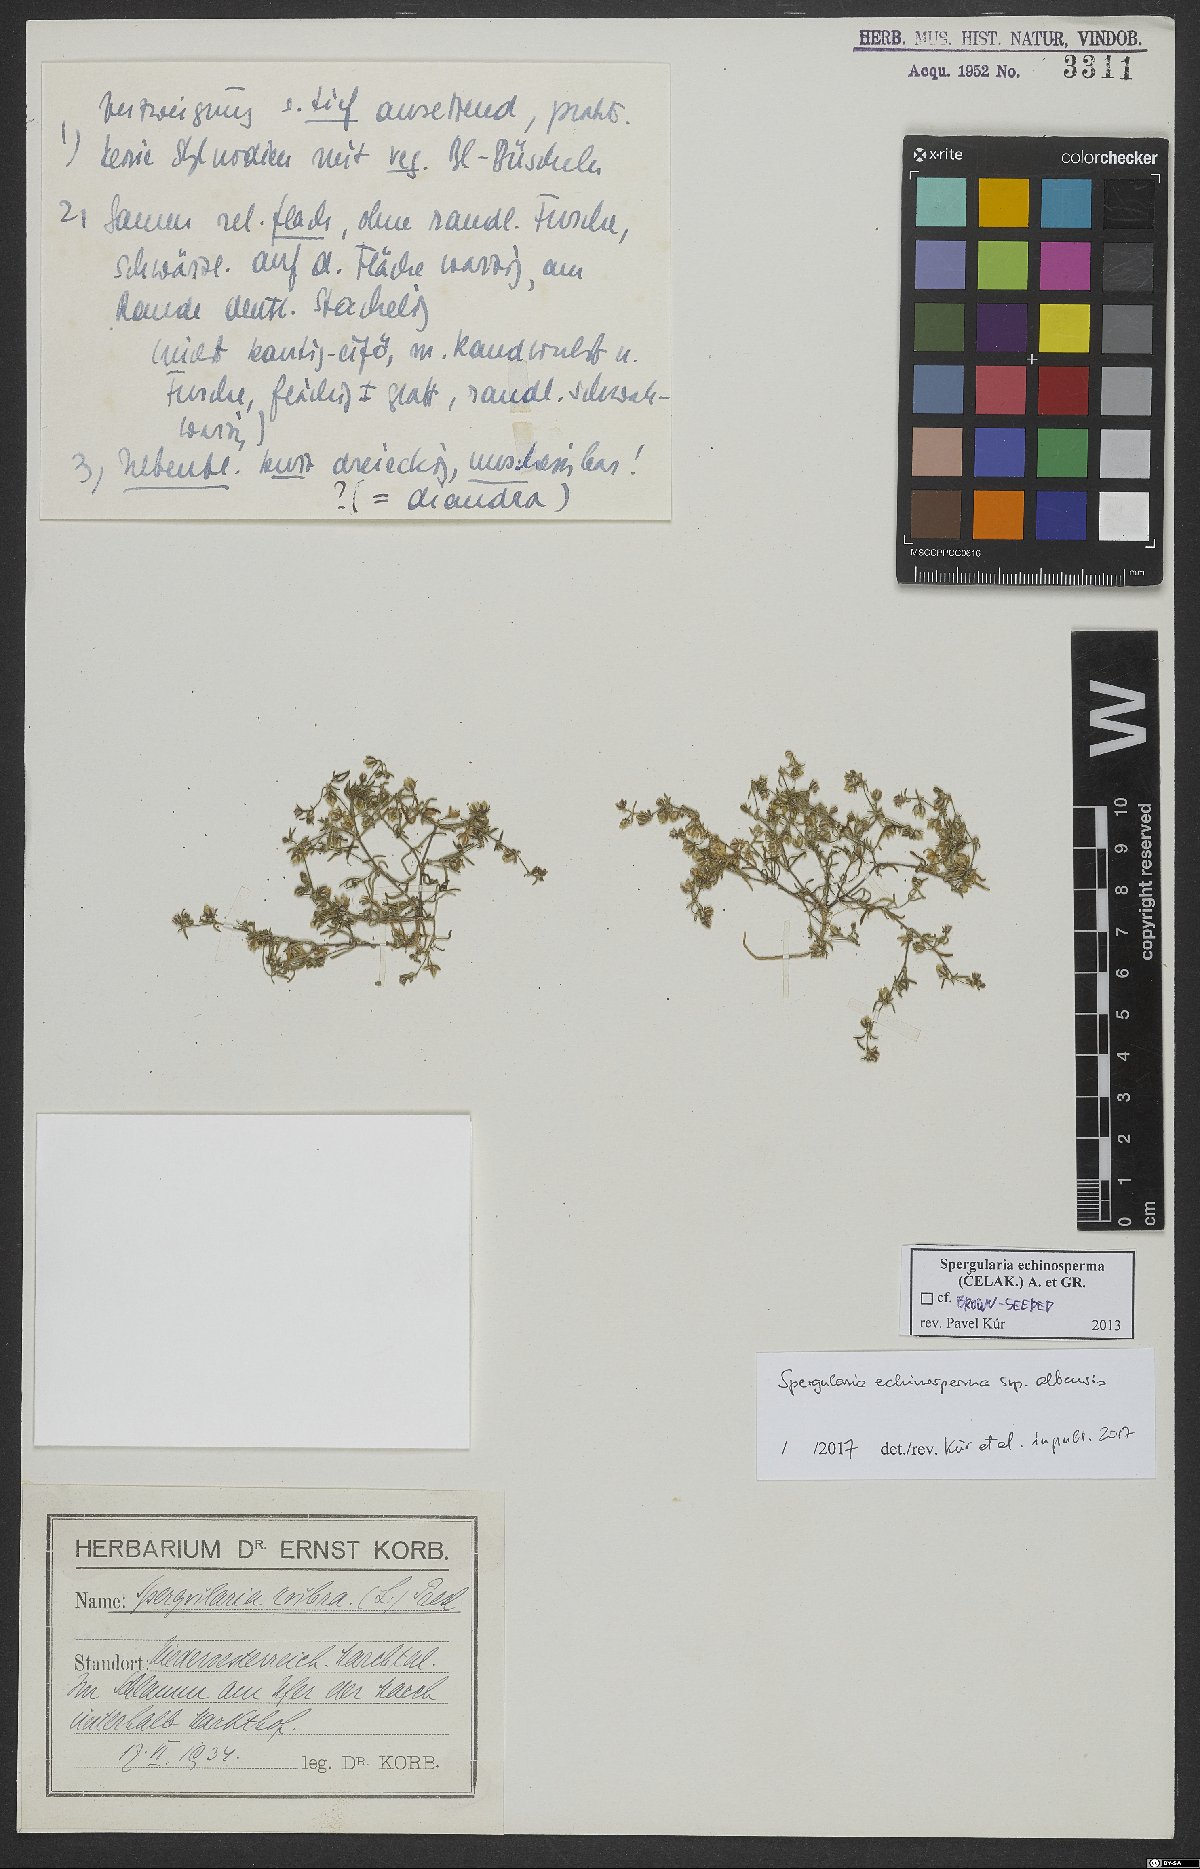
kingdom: Plantae
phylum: Tracheophyta
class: Magnoliopsida
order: Caryophyllales
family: Caryophyllaceae
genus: Spergularia
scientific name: Spergularia echinosperma
